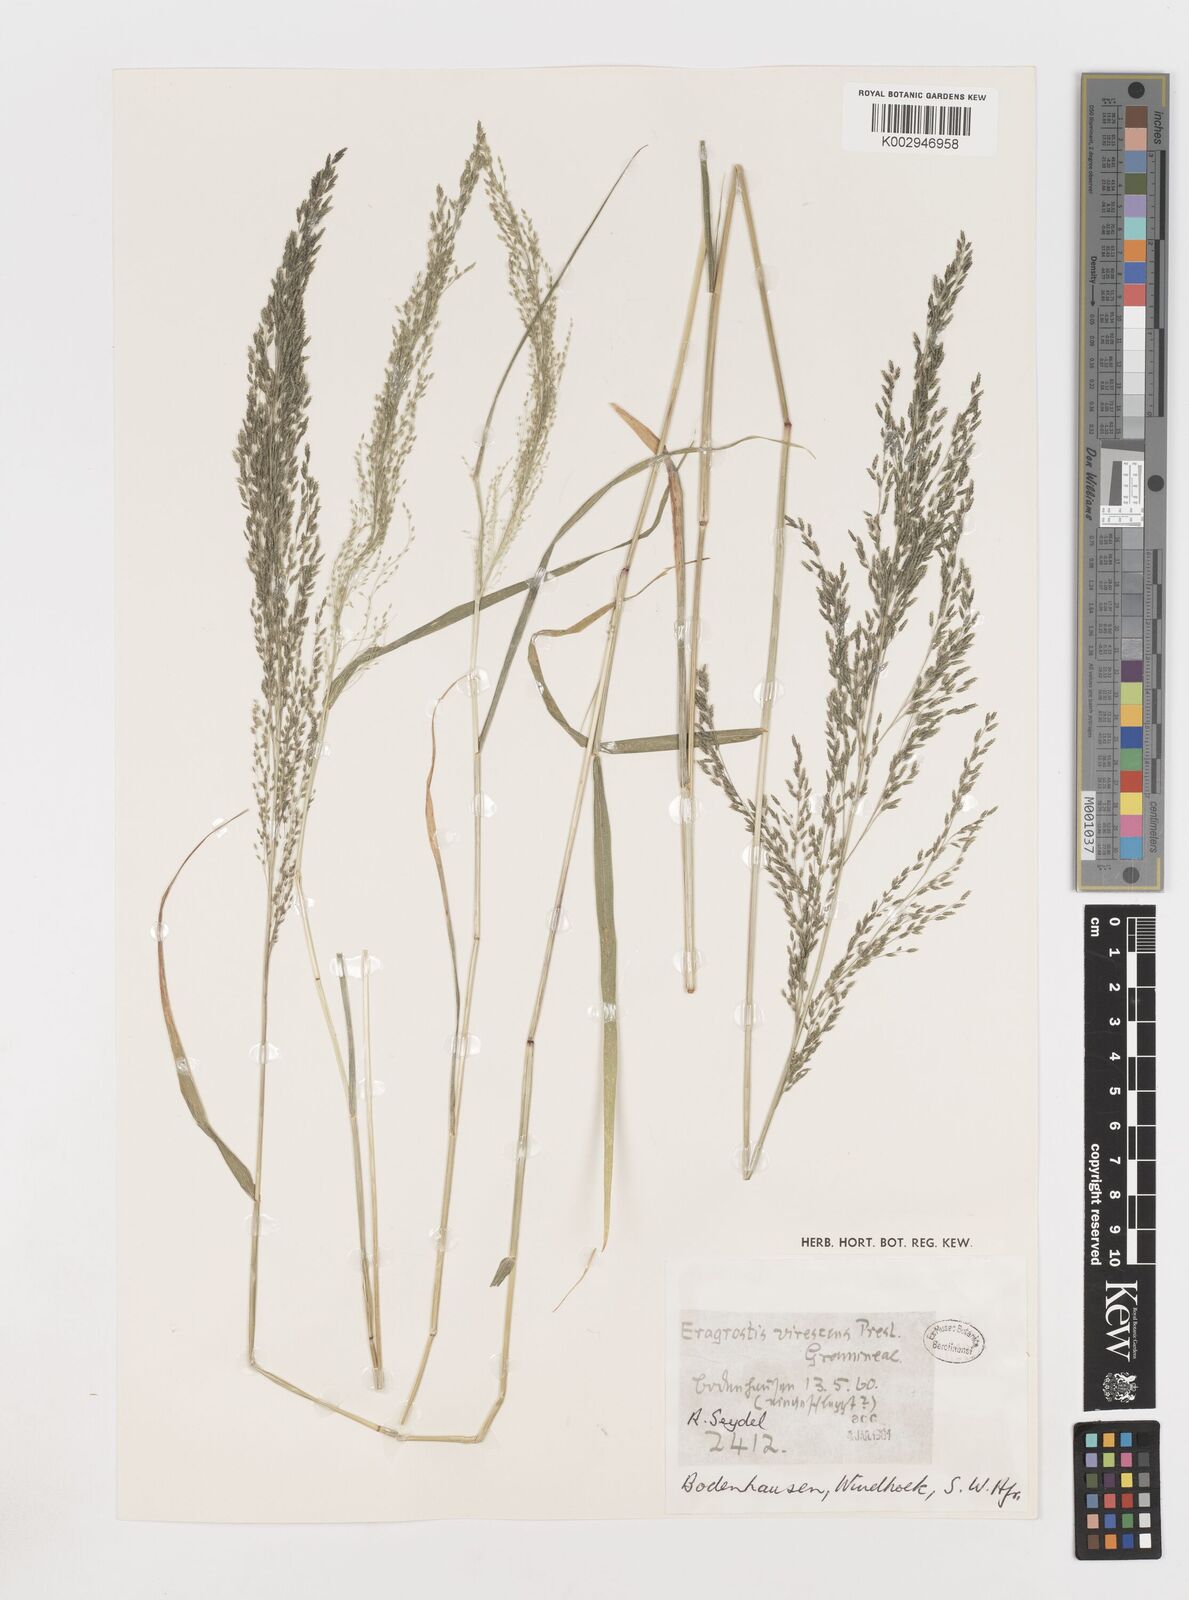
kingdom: Plantae
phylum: Tracheophyta
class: Liliopsida
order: Poales
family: Poaceae
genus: Eragrostis
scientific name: Eragrostis
